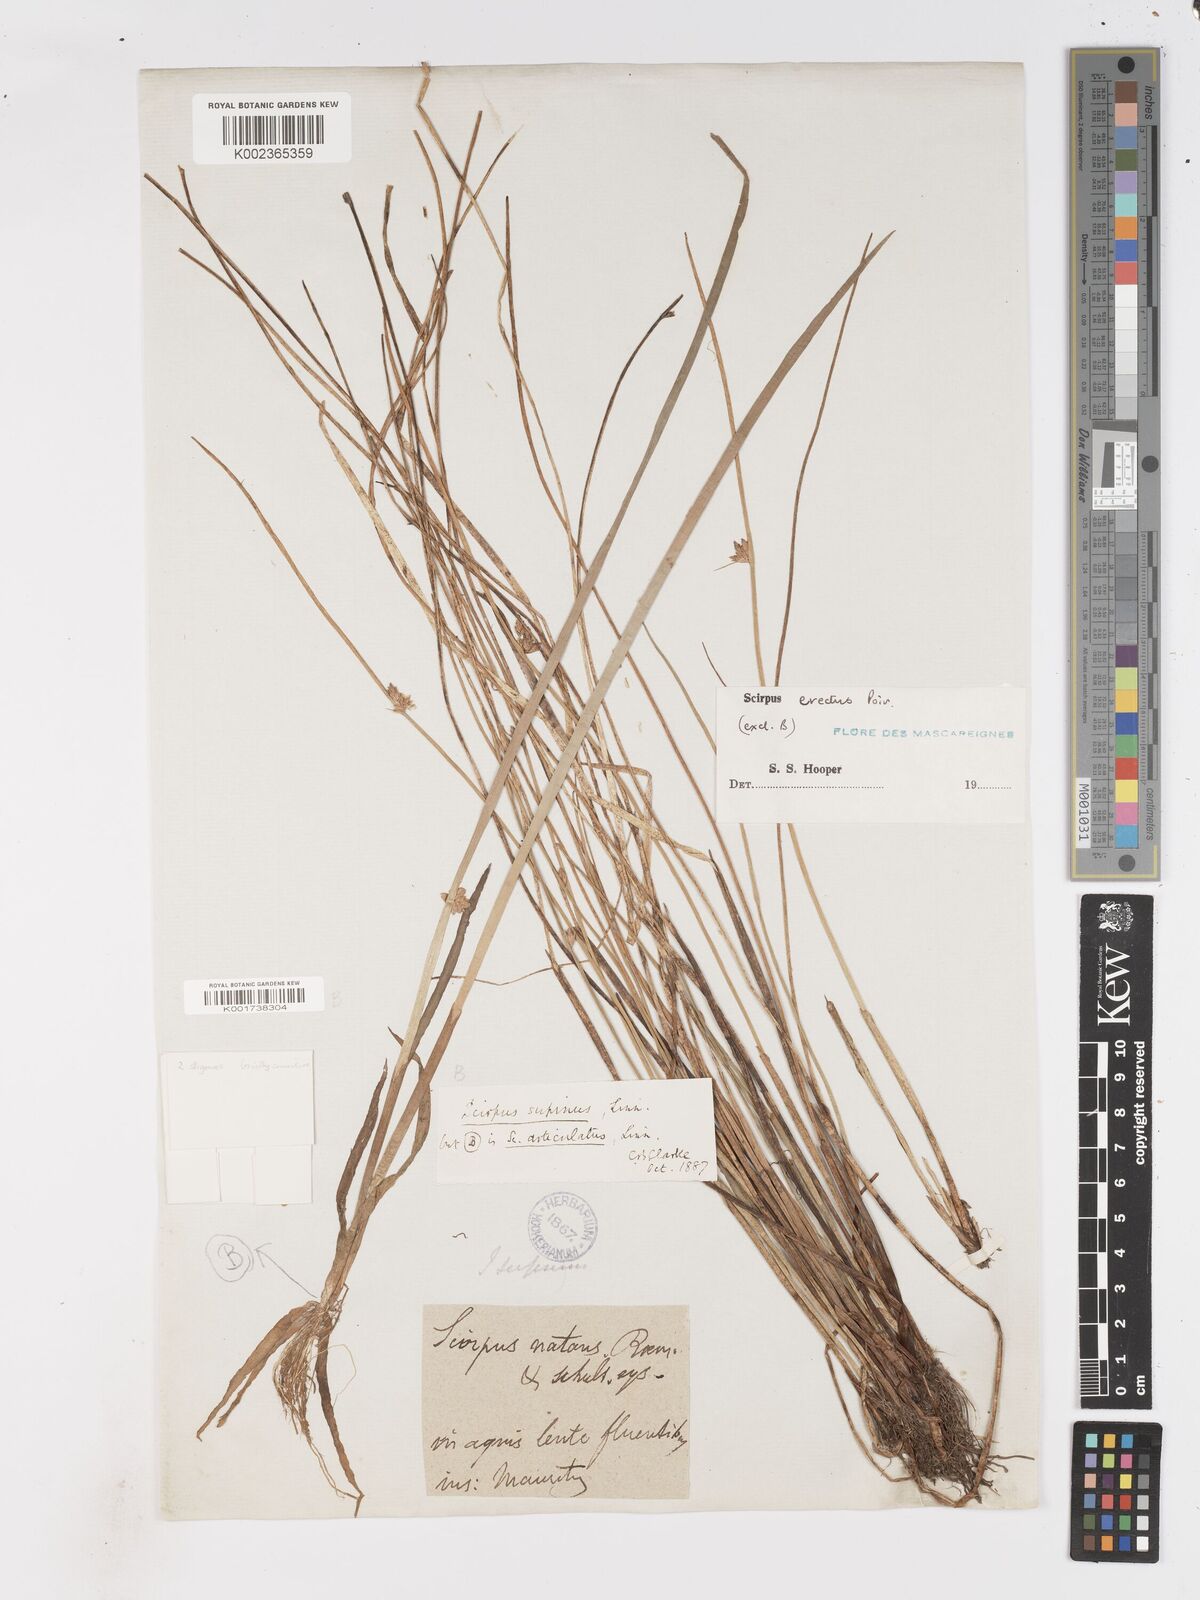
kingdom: Plantae
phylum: Tracheophyta
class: Liliopsida
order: Poales
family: Cyperaceae
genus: Schoenoplectiella
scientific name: Schoenoplectiella erecta
